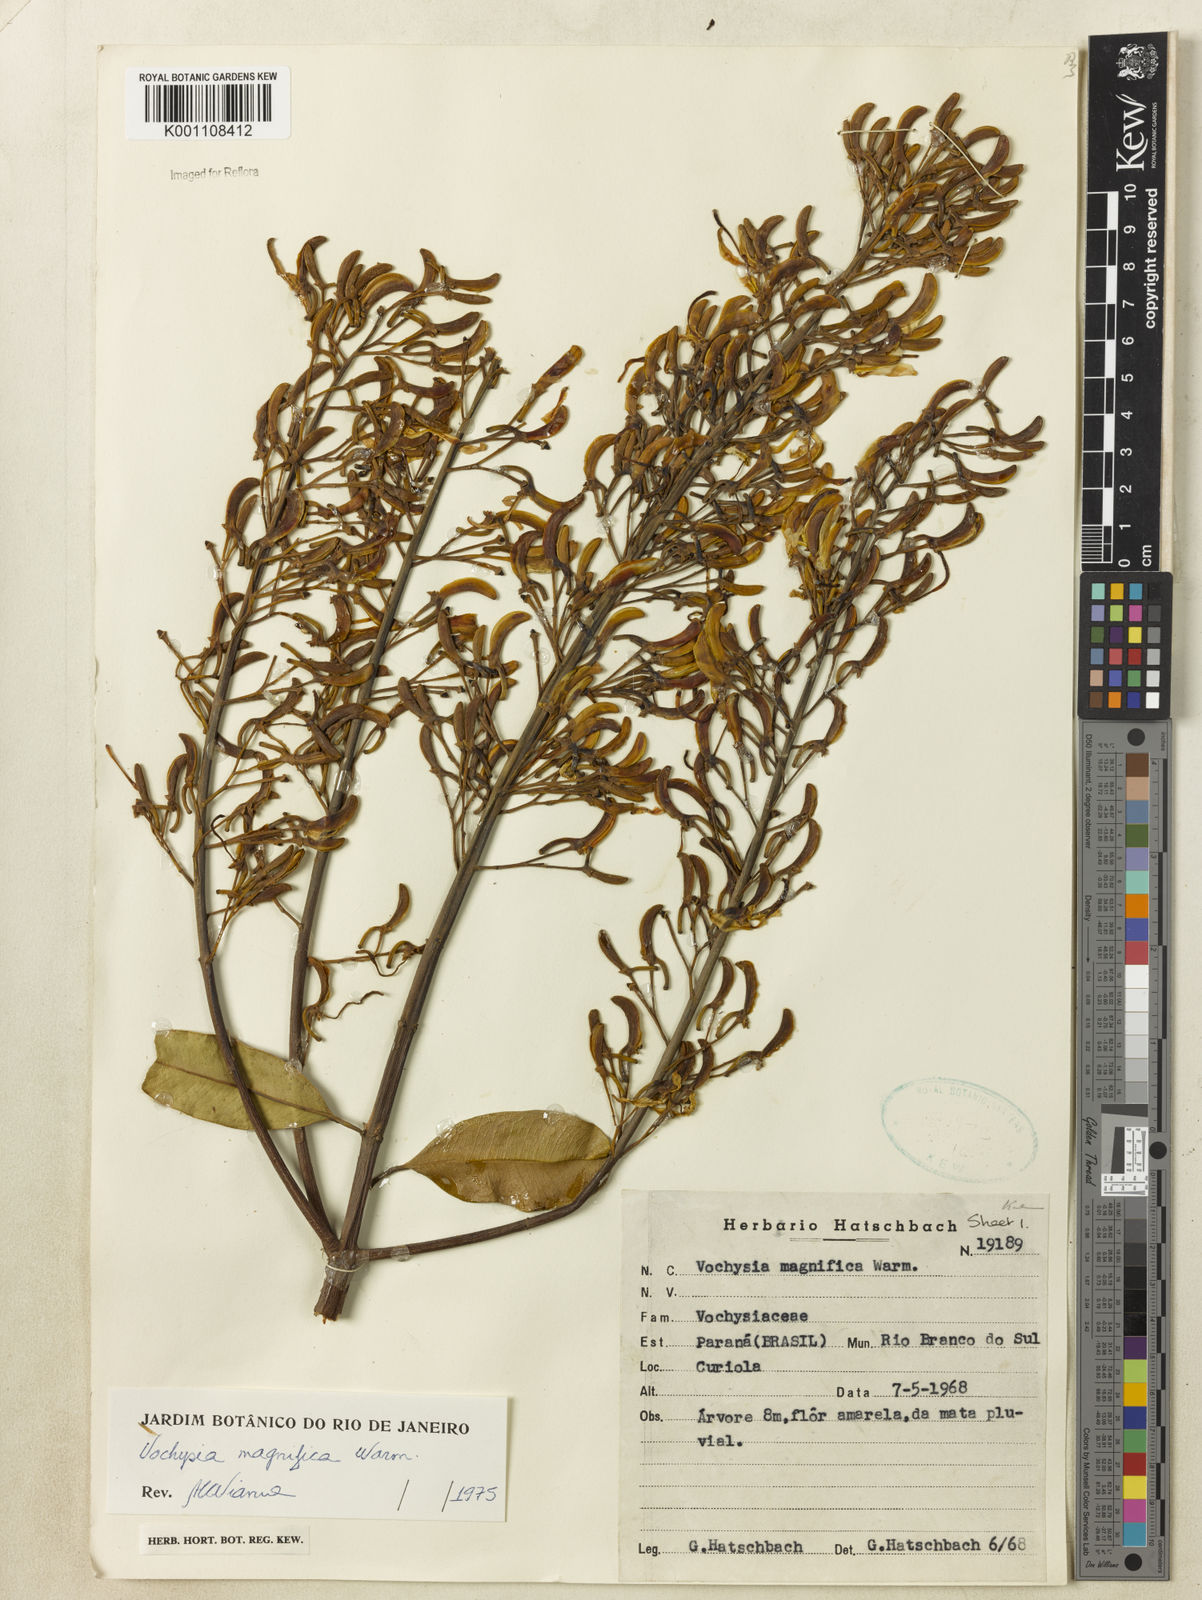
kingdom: Plantae
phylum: Tracheophyta
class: Magnoliopsida
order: Myrtales
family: Vochysiaceae
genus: Vochysia
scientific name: Vochysia magnifica
